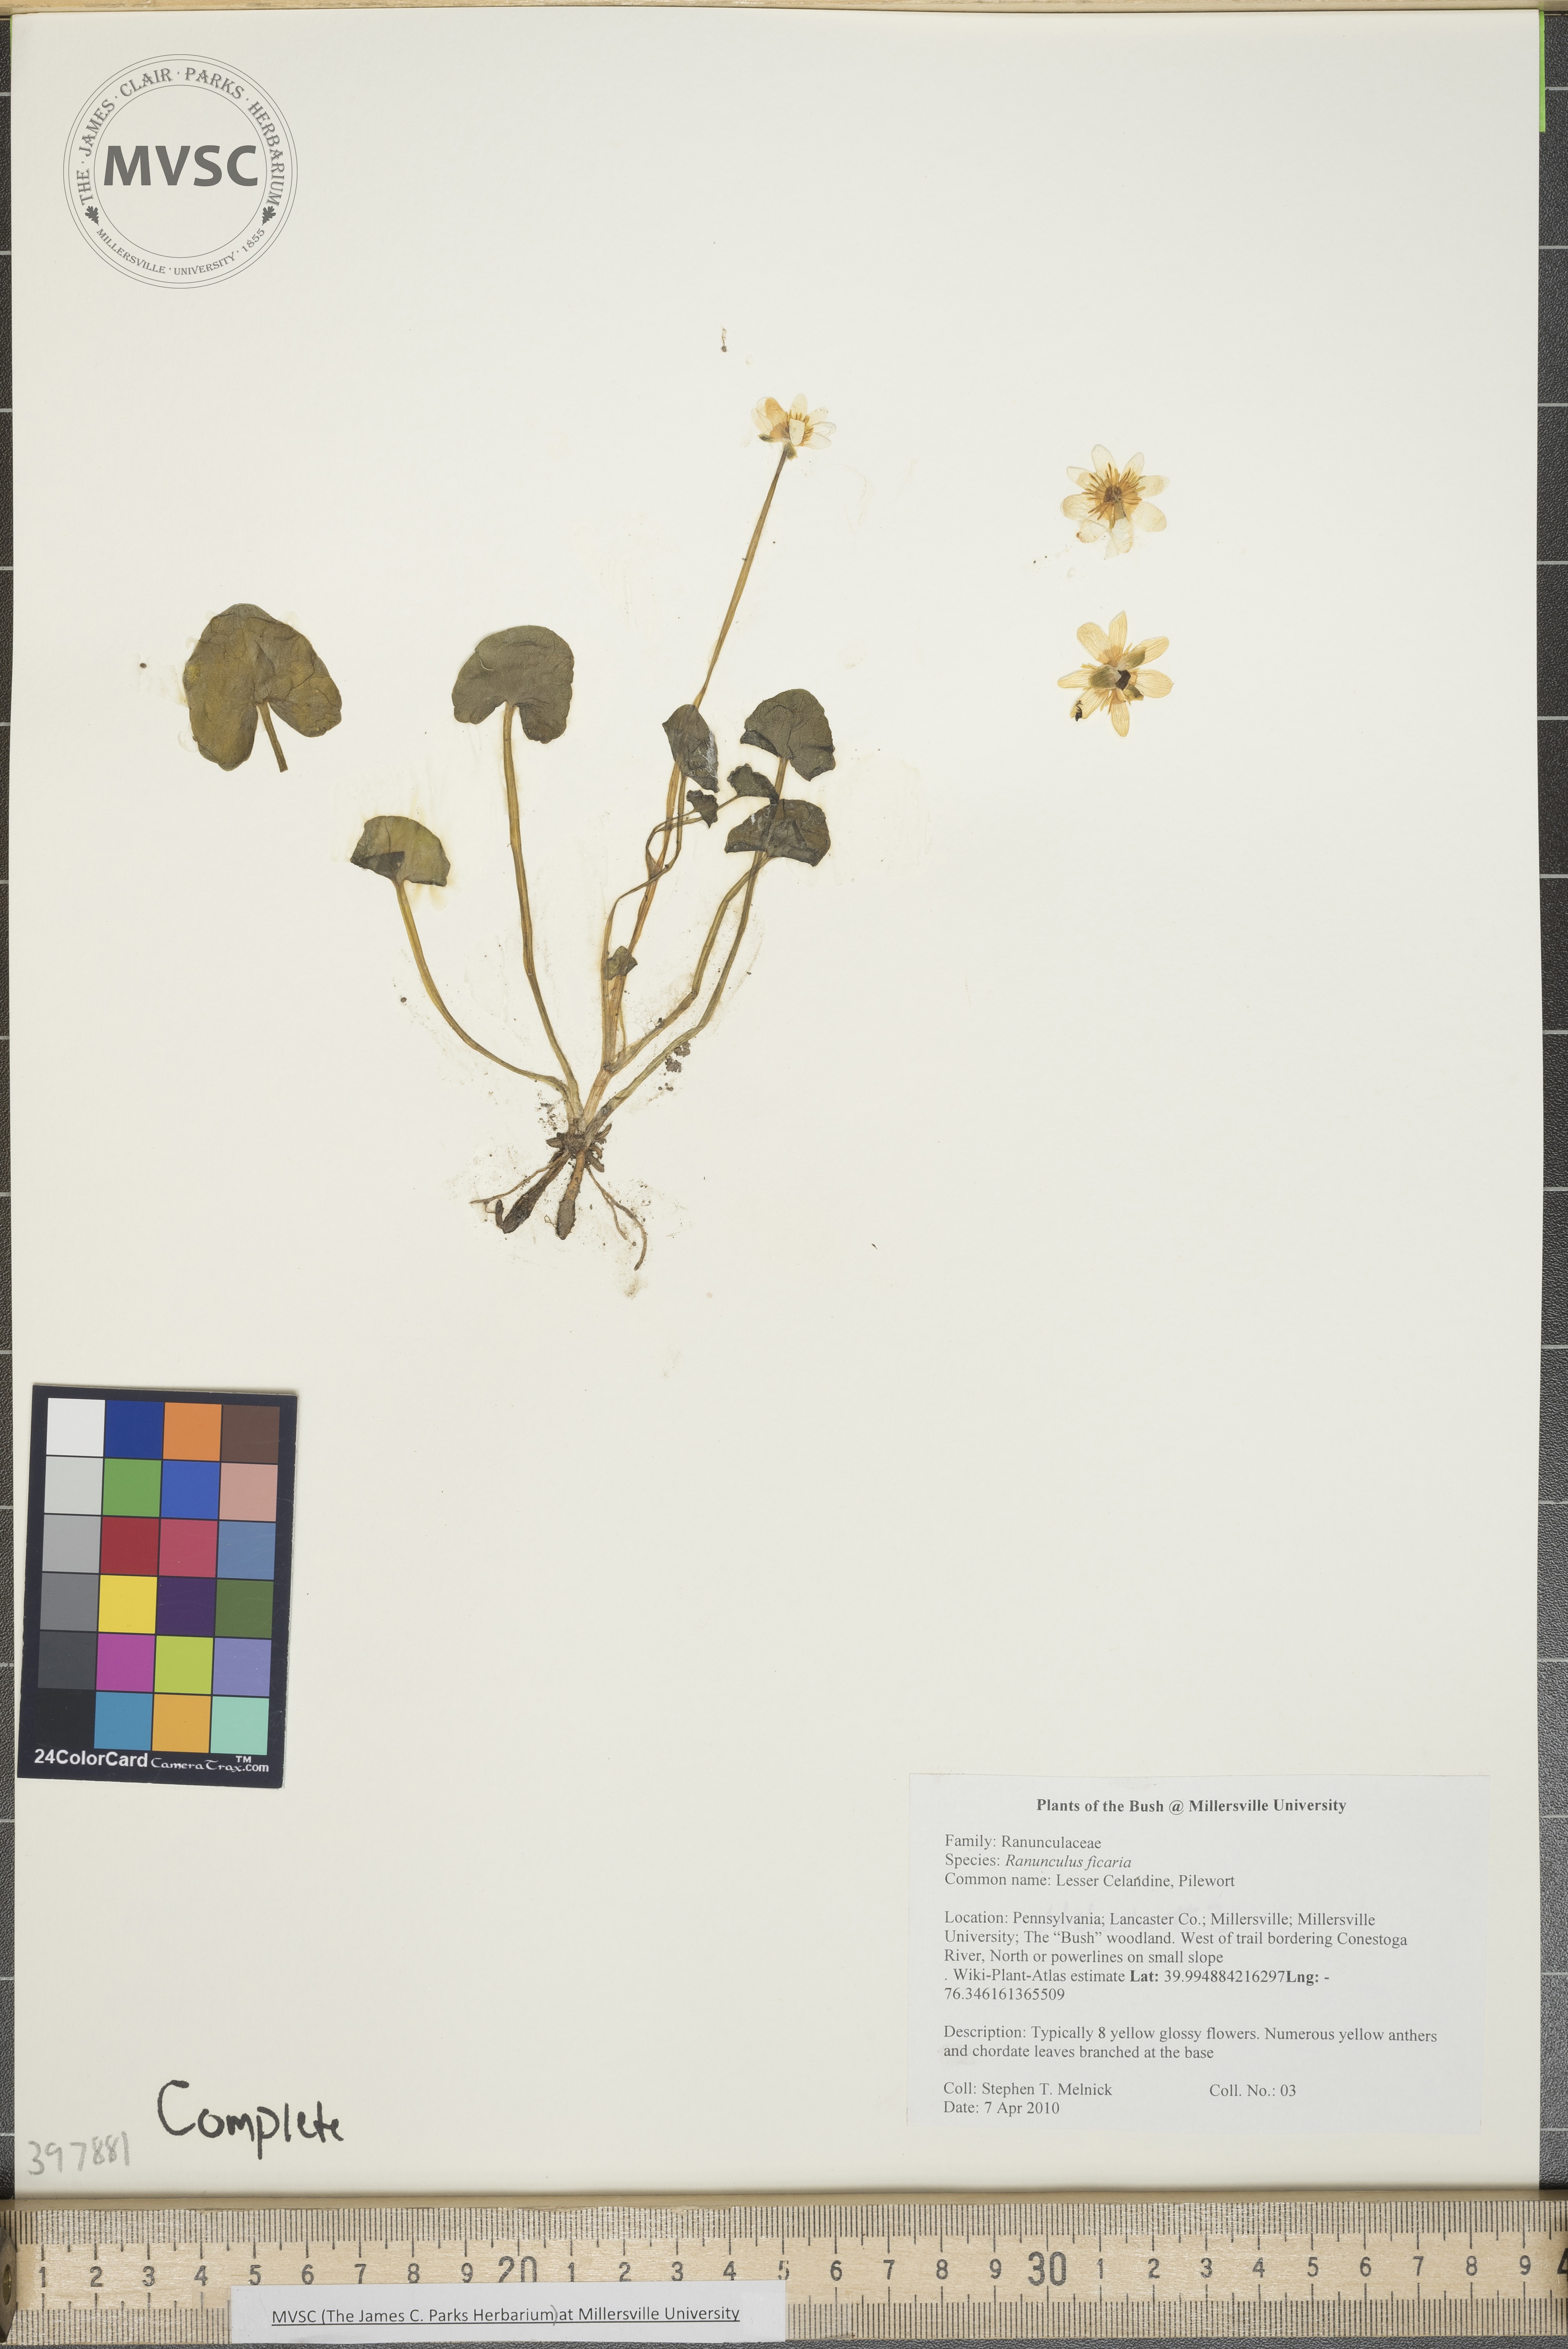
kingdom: Plantae
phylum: Tracheophyta
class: Magnoliopsida
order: Ranunculales
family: Ranunculaceae
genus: Ranunculus
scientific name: Ranunculus ficaria
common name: Lesser celandine
